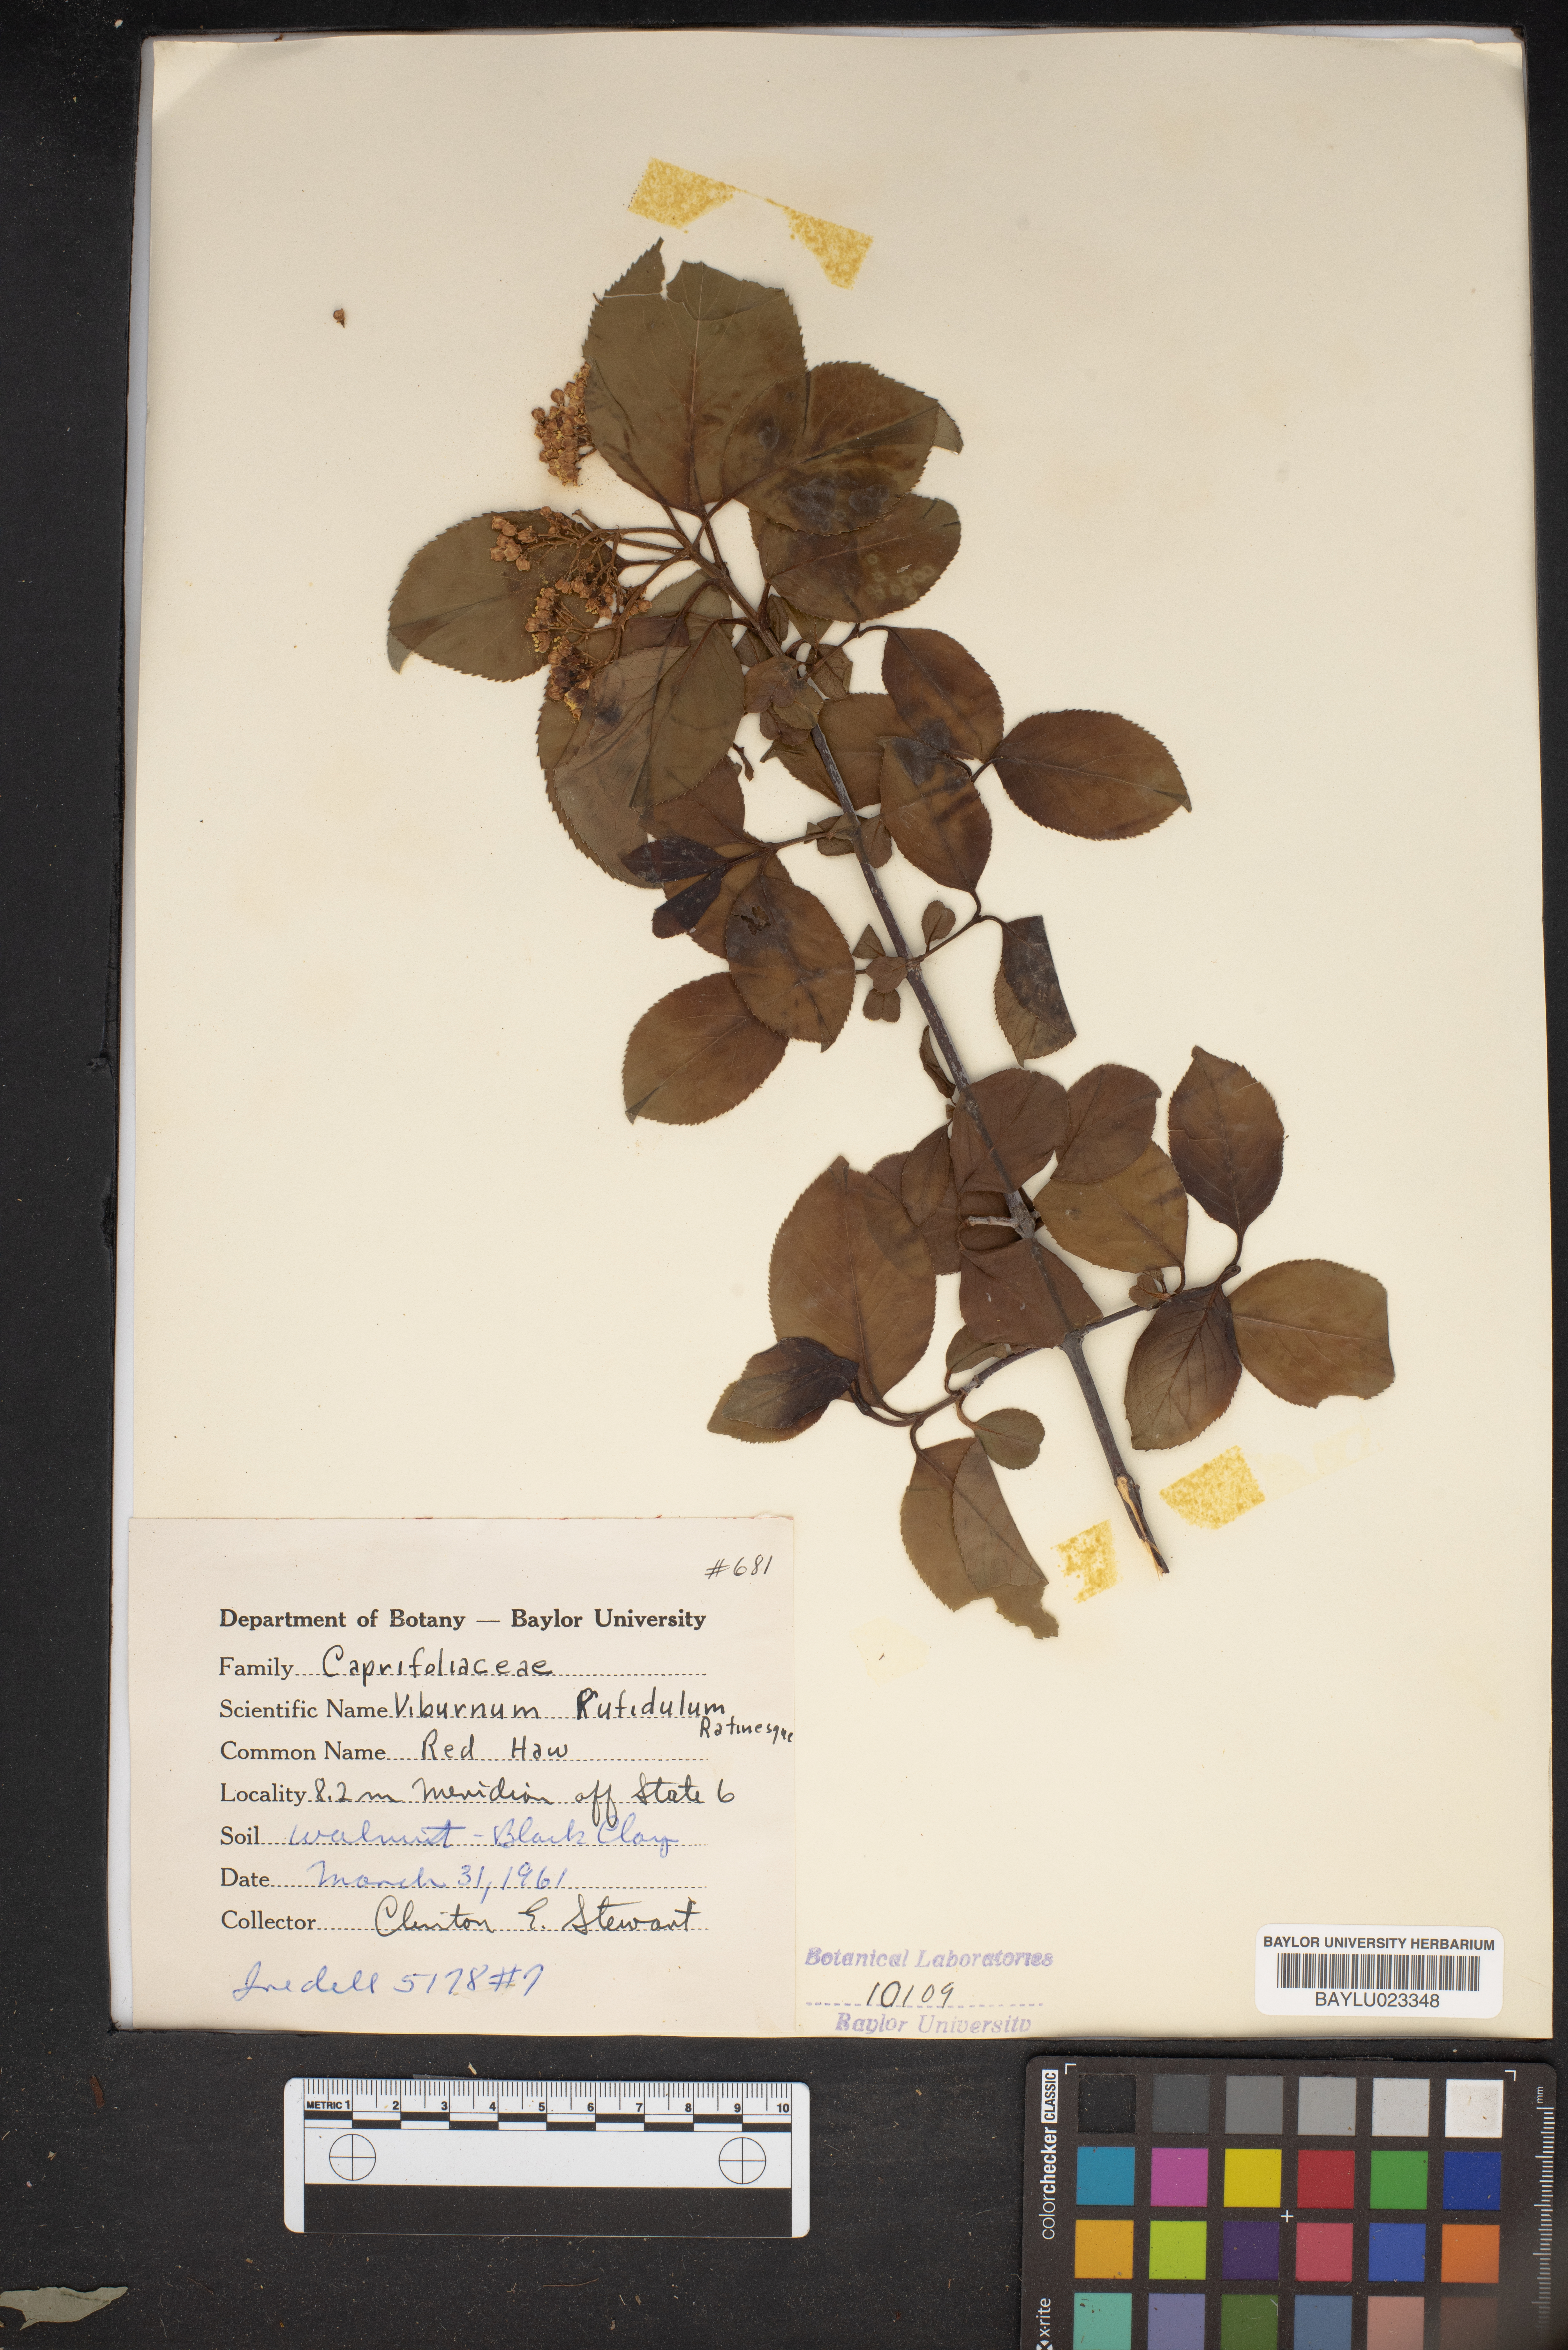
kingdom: Plantae
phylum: Tracheophyta
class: Magnoliopsida
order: Dipsacales
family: Viburnaceae
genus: Viburnum
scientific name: Viburnum rufidulum
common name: Blue haw
